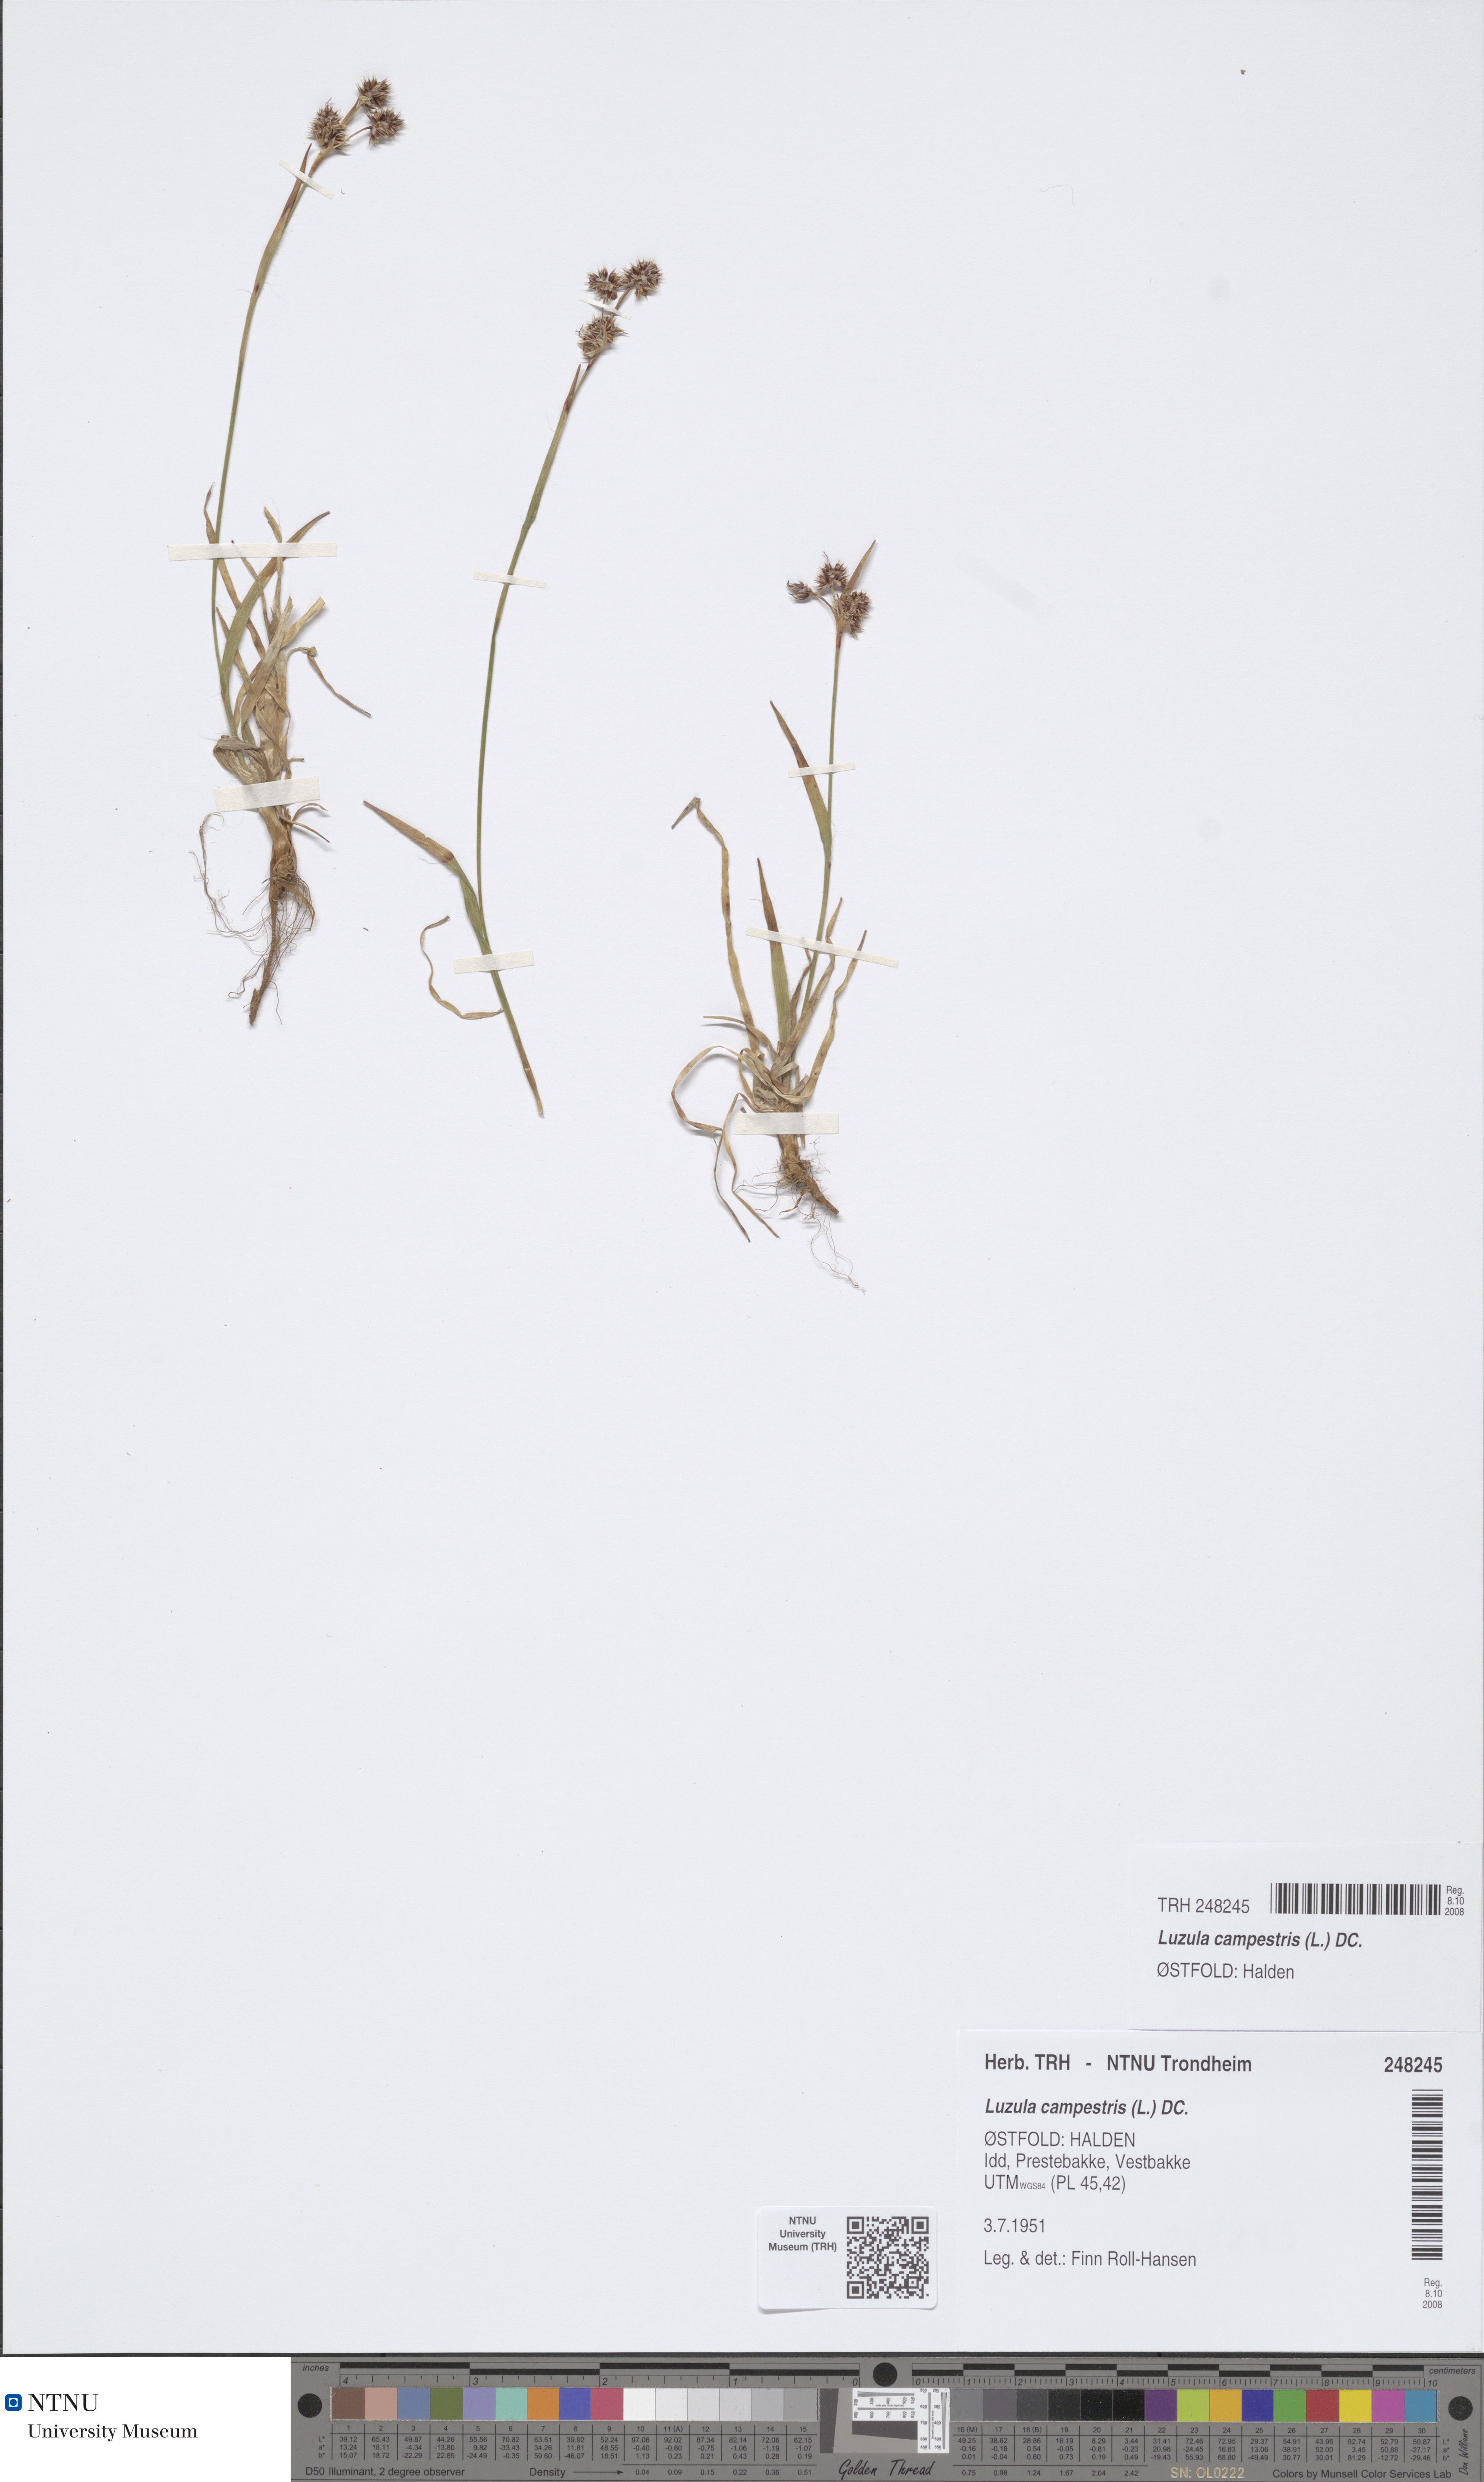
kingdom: Plantae
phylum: Tracheophyta
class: Liliopsida
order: Poales
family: Juncaceae
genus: Luzula
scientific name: Luzula campestris
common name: Field wood-rush
